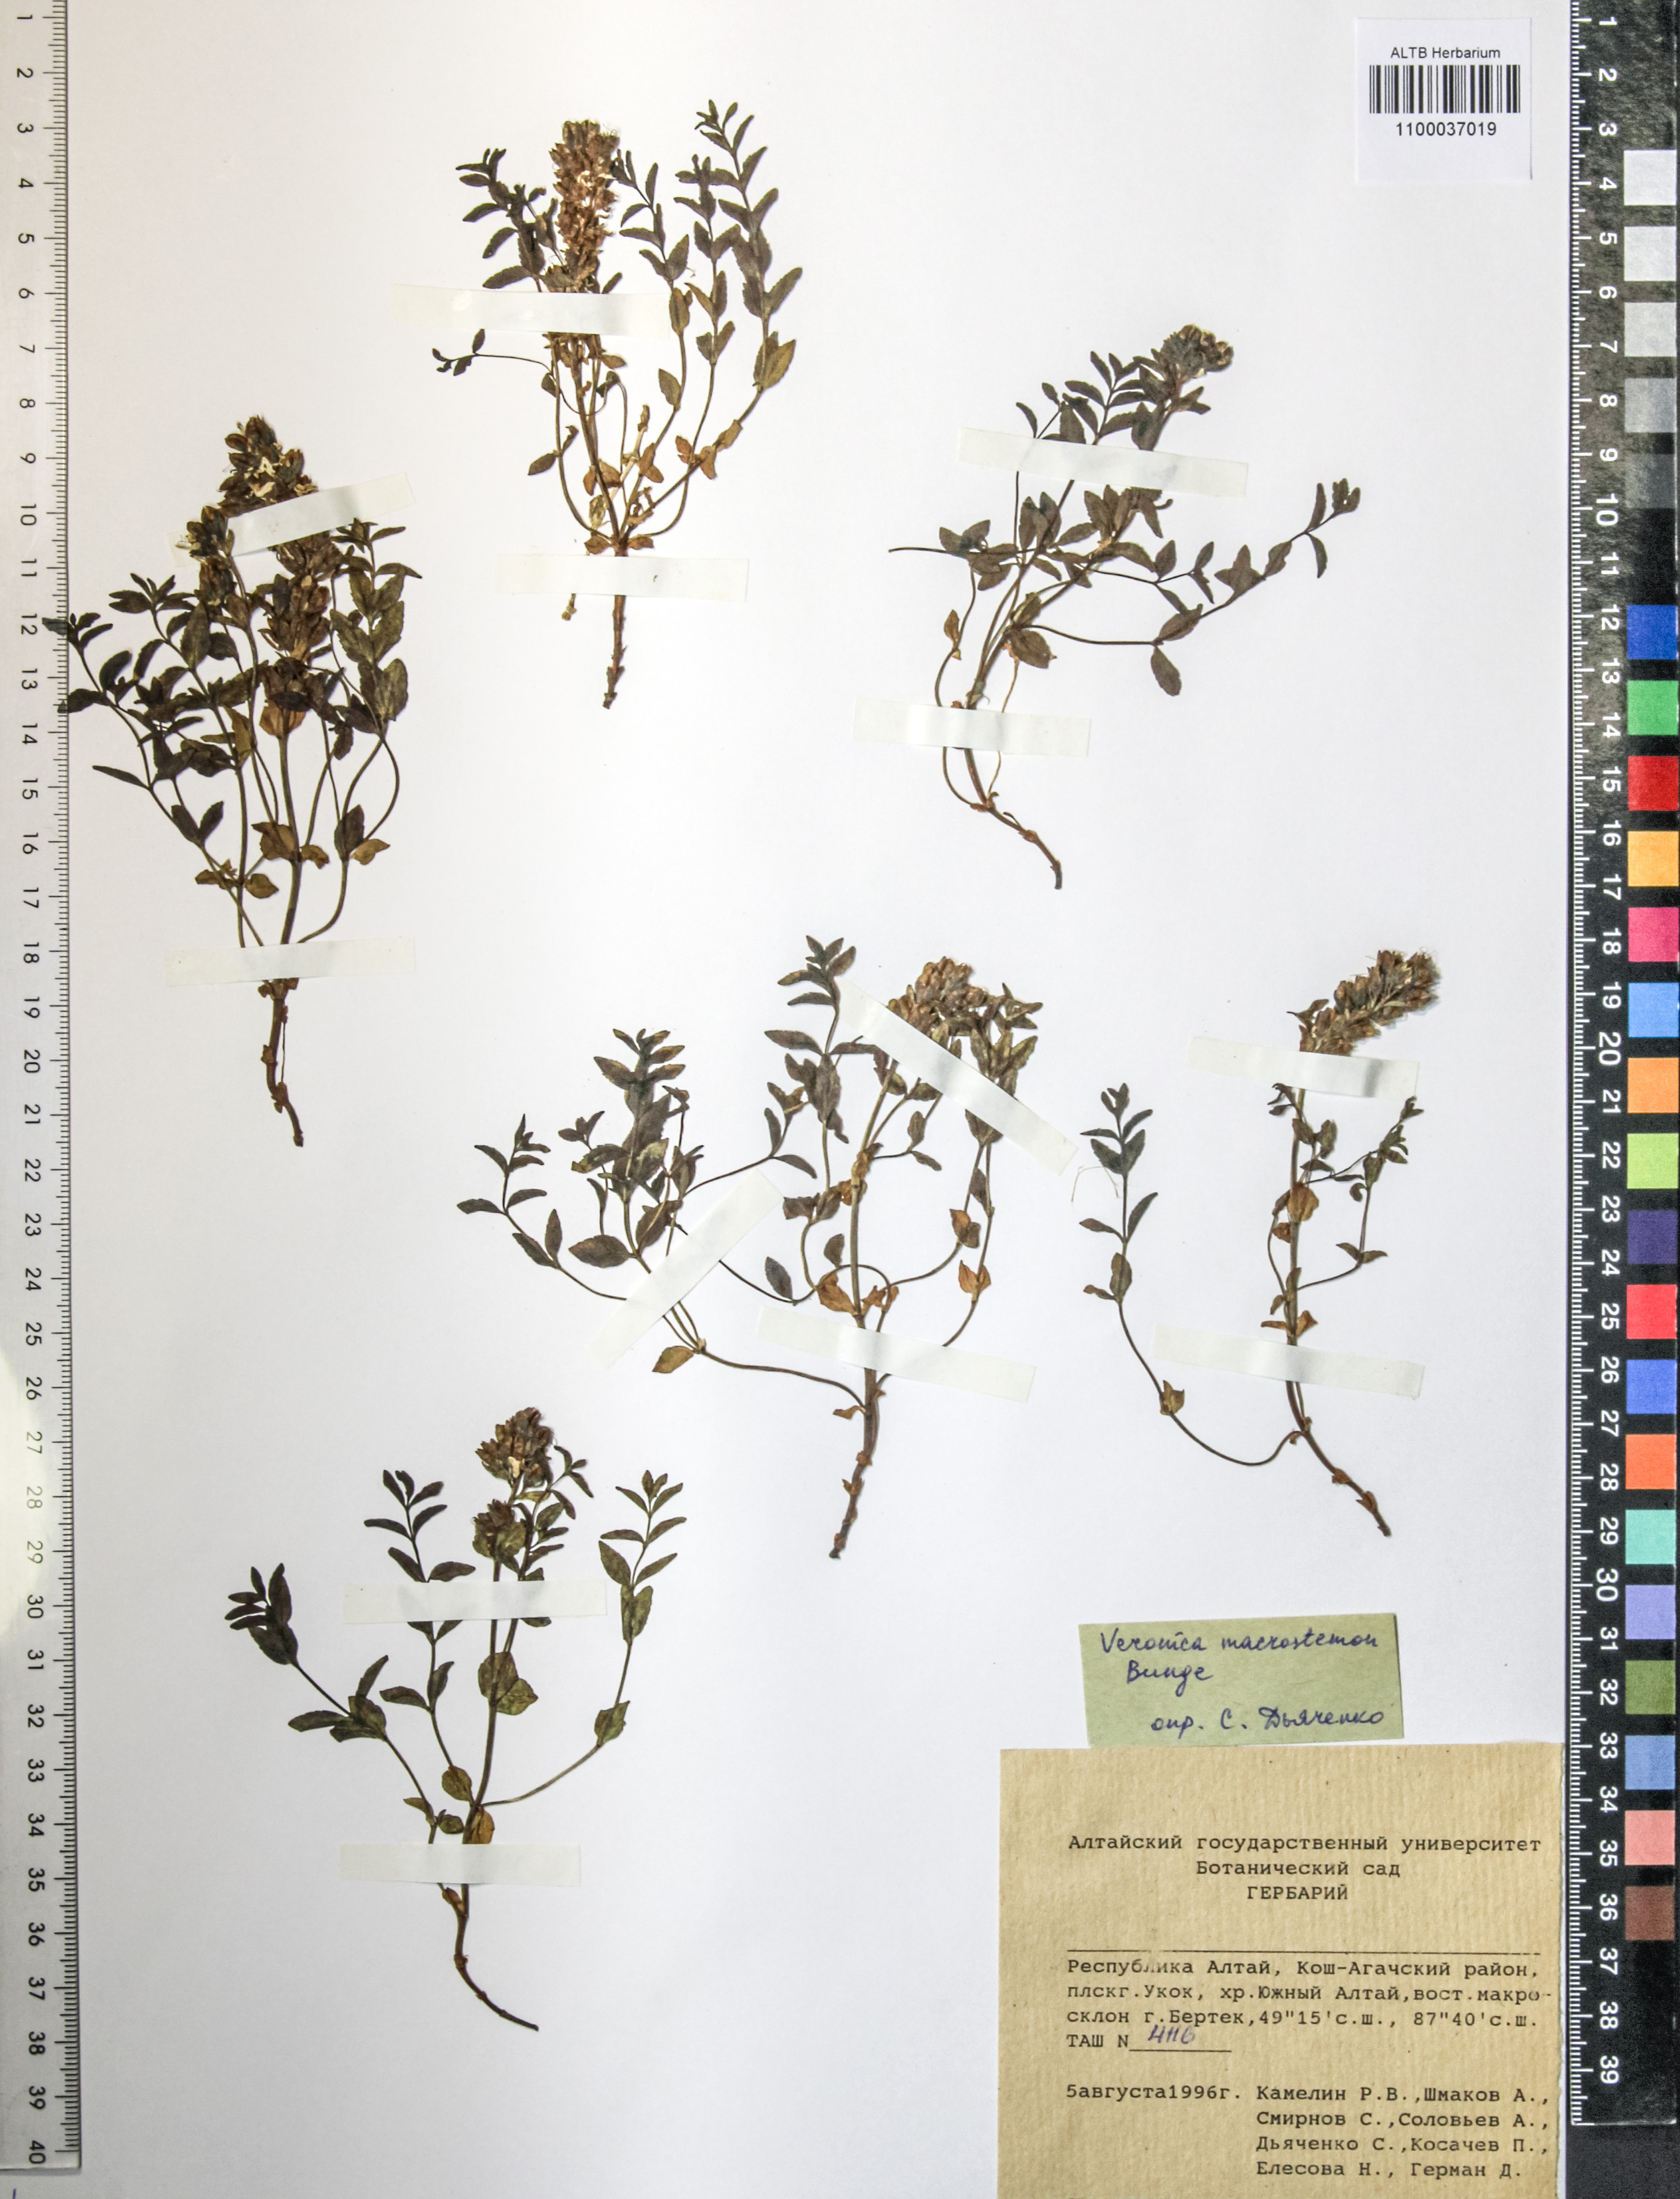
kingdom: Plantae
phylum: Tracheophyta
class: Magnoliopsida
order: Lamiales
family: Plantaginaceae
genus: Veronica
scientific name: Veronica macrostemon
